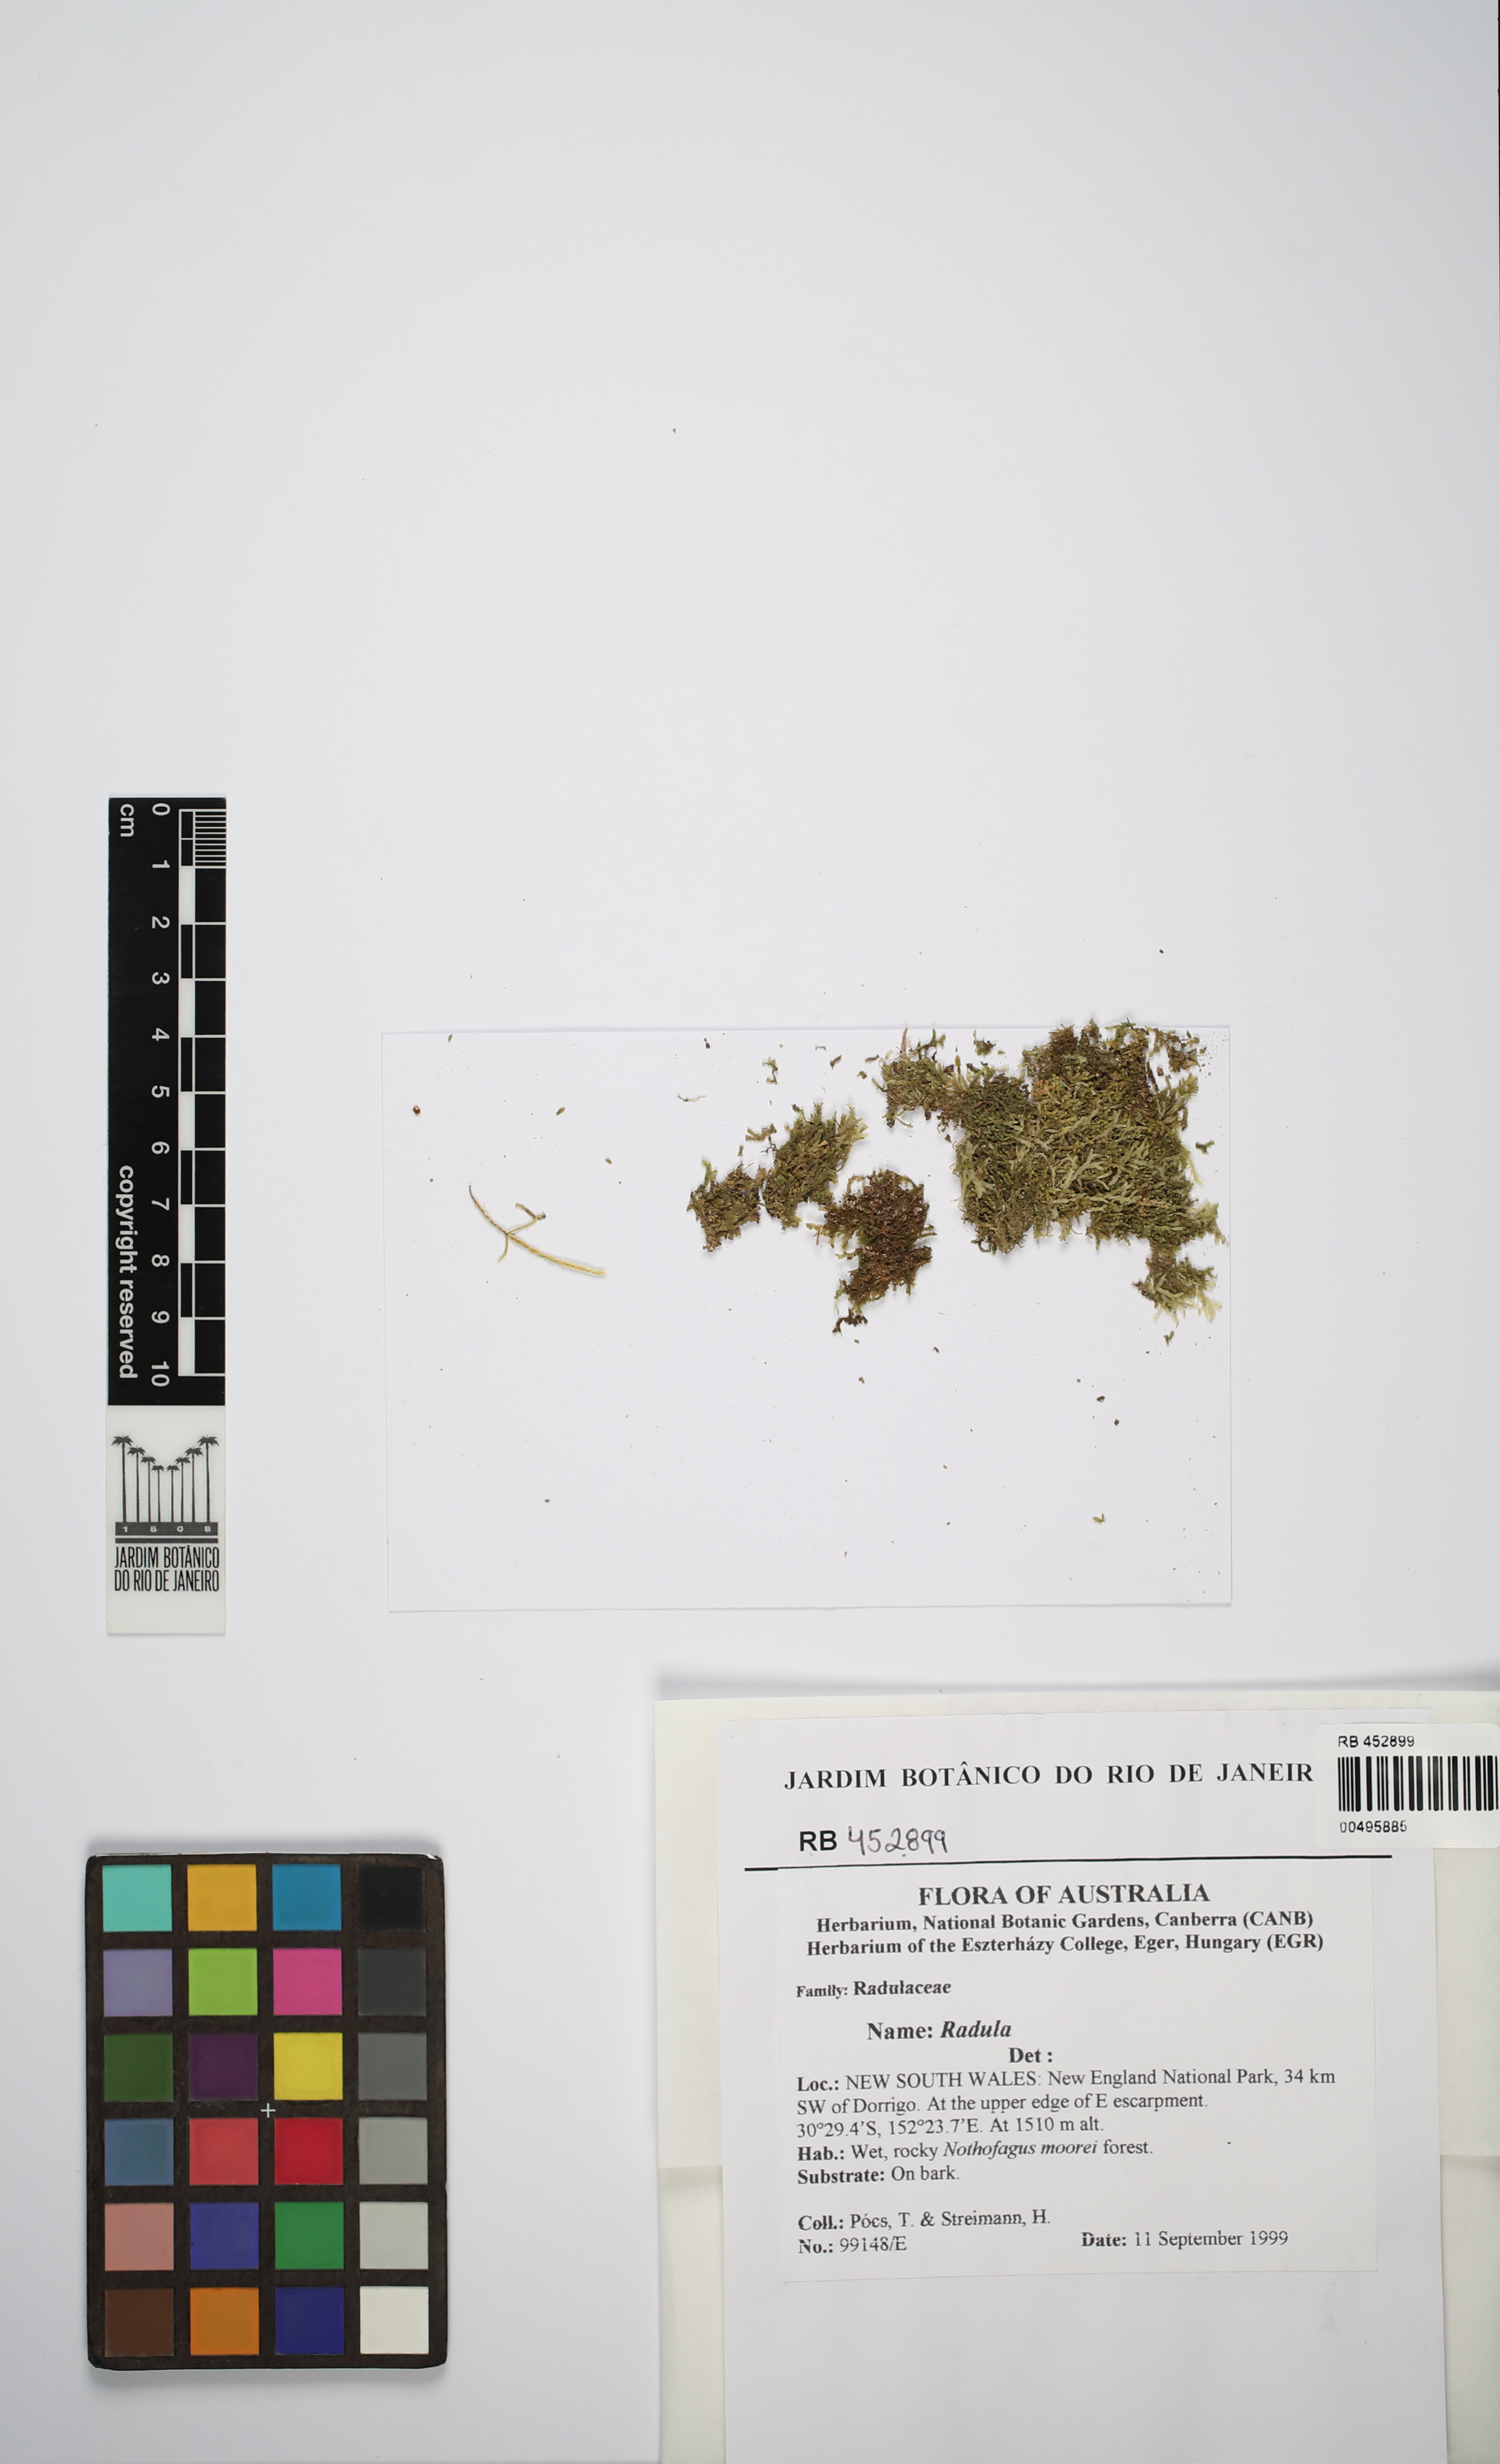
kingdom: Plantae
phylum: Marchantiophyta
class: Jungermanniopsida
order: Porellales
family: Radulaceae
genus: Radula
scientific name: Radula
